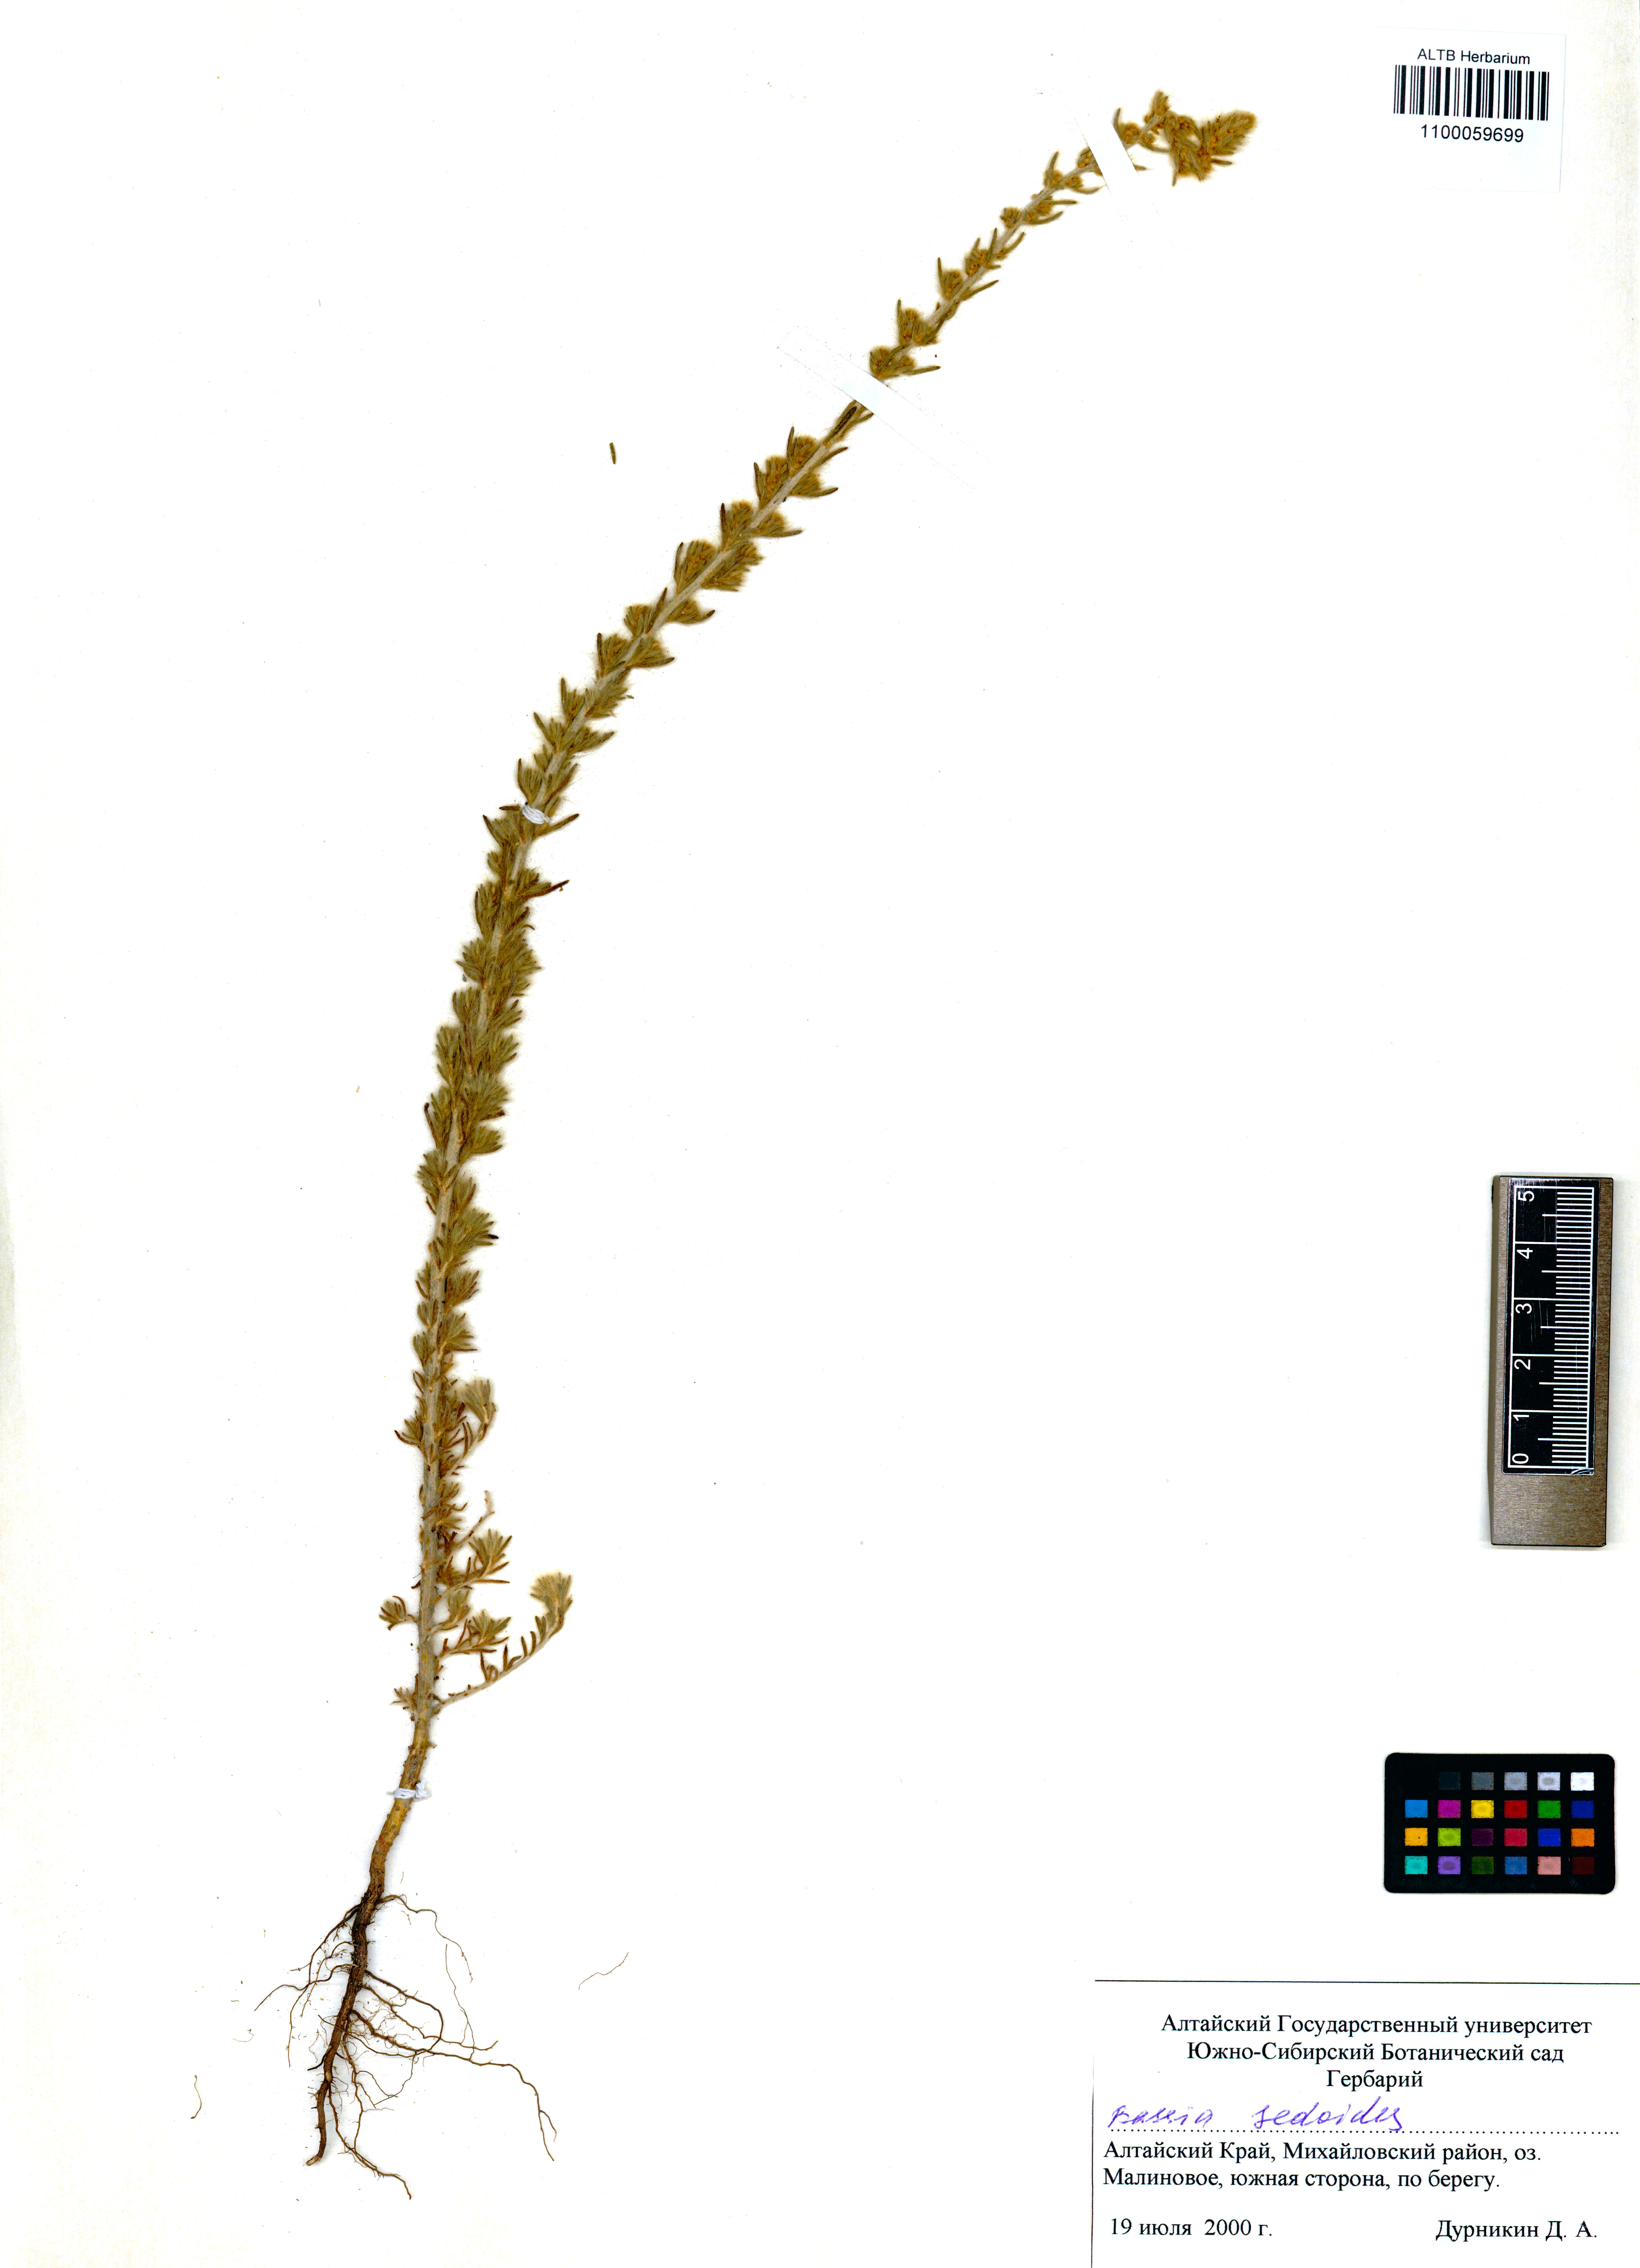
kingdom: Plantae
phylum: Tracheophyta
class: Magnoliopsida
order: Caryophyllales
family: Amaranthaceae
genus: Sedobassia
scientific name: Sedobassia sedoides
